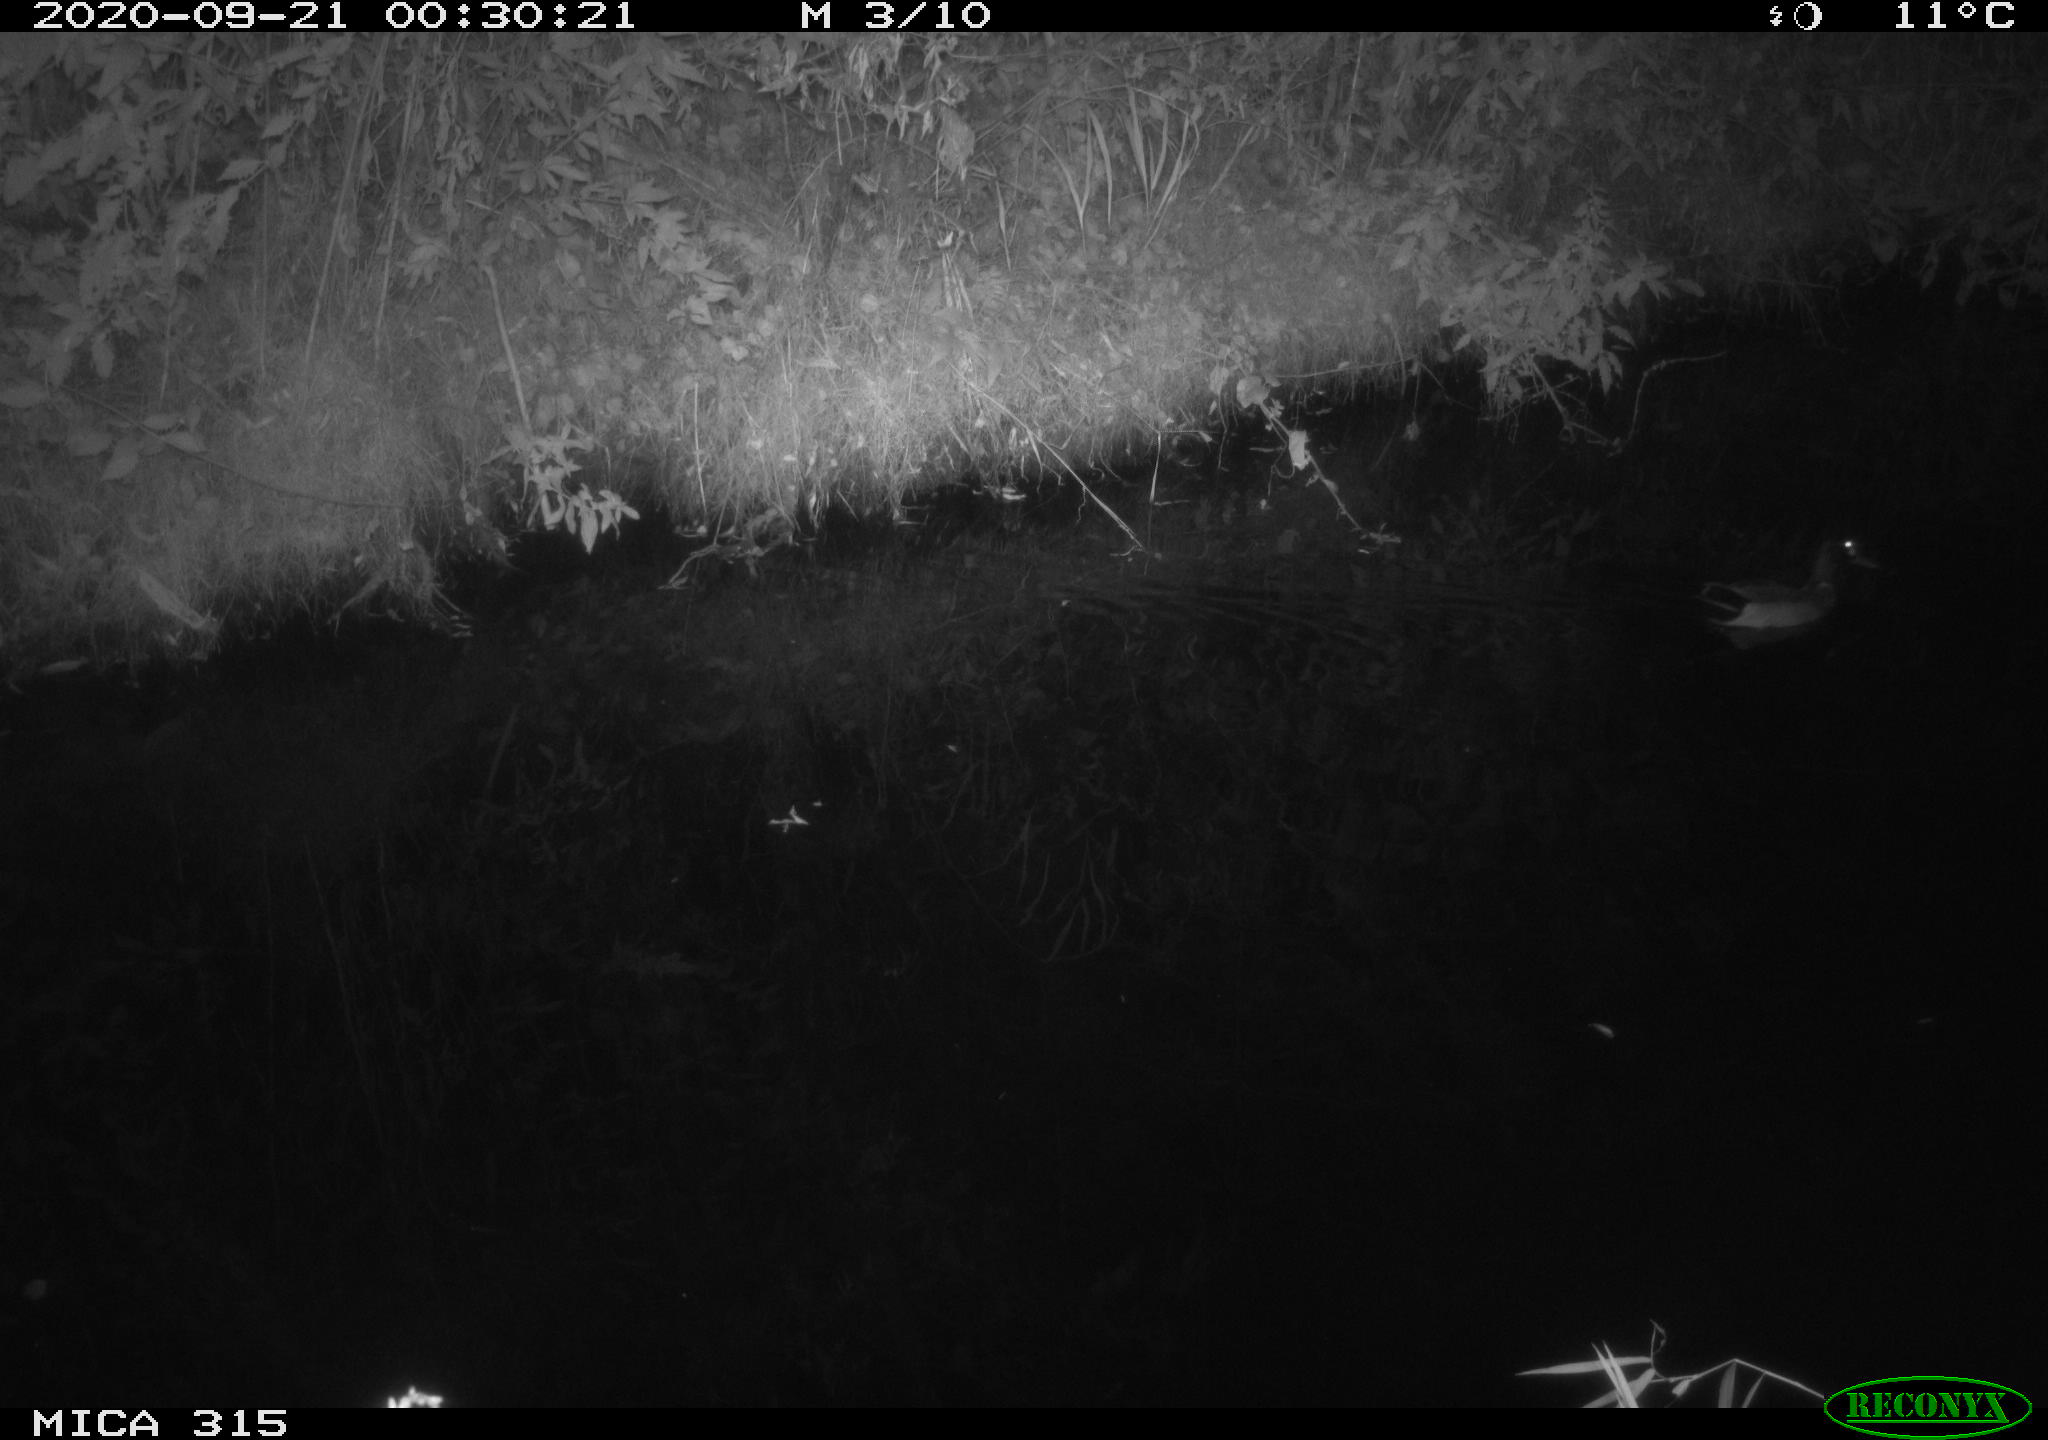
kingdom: Animalia
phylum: Chordata
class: Aves
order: Anseriformes
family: Anatidae
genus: Anas
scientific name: Anas platyrhynchos
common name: Mallard
